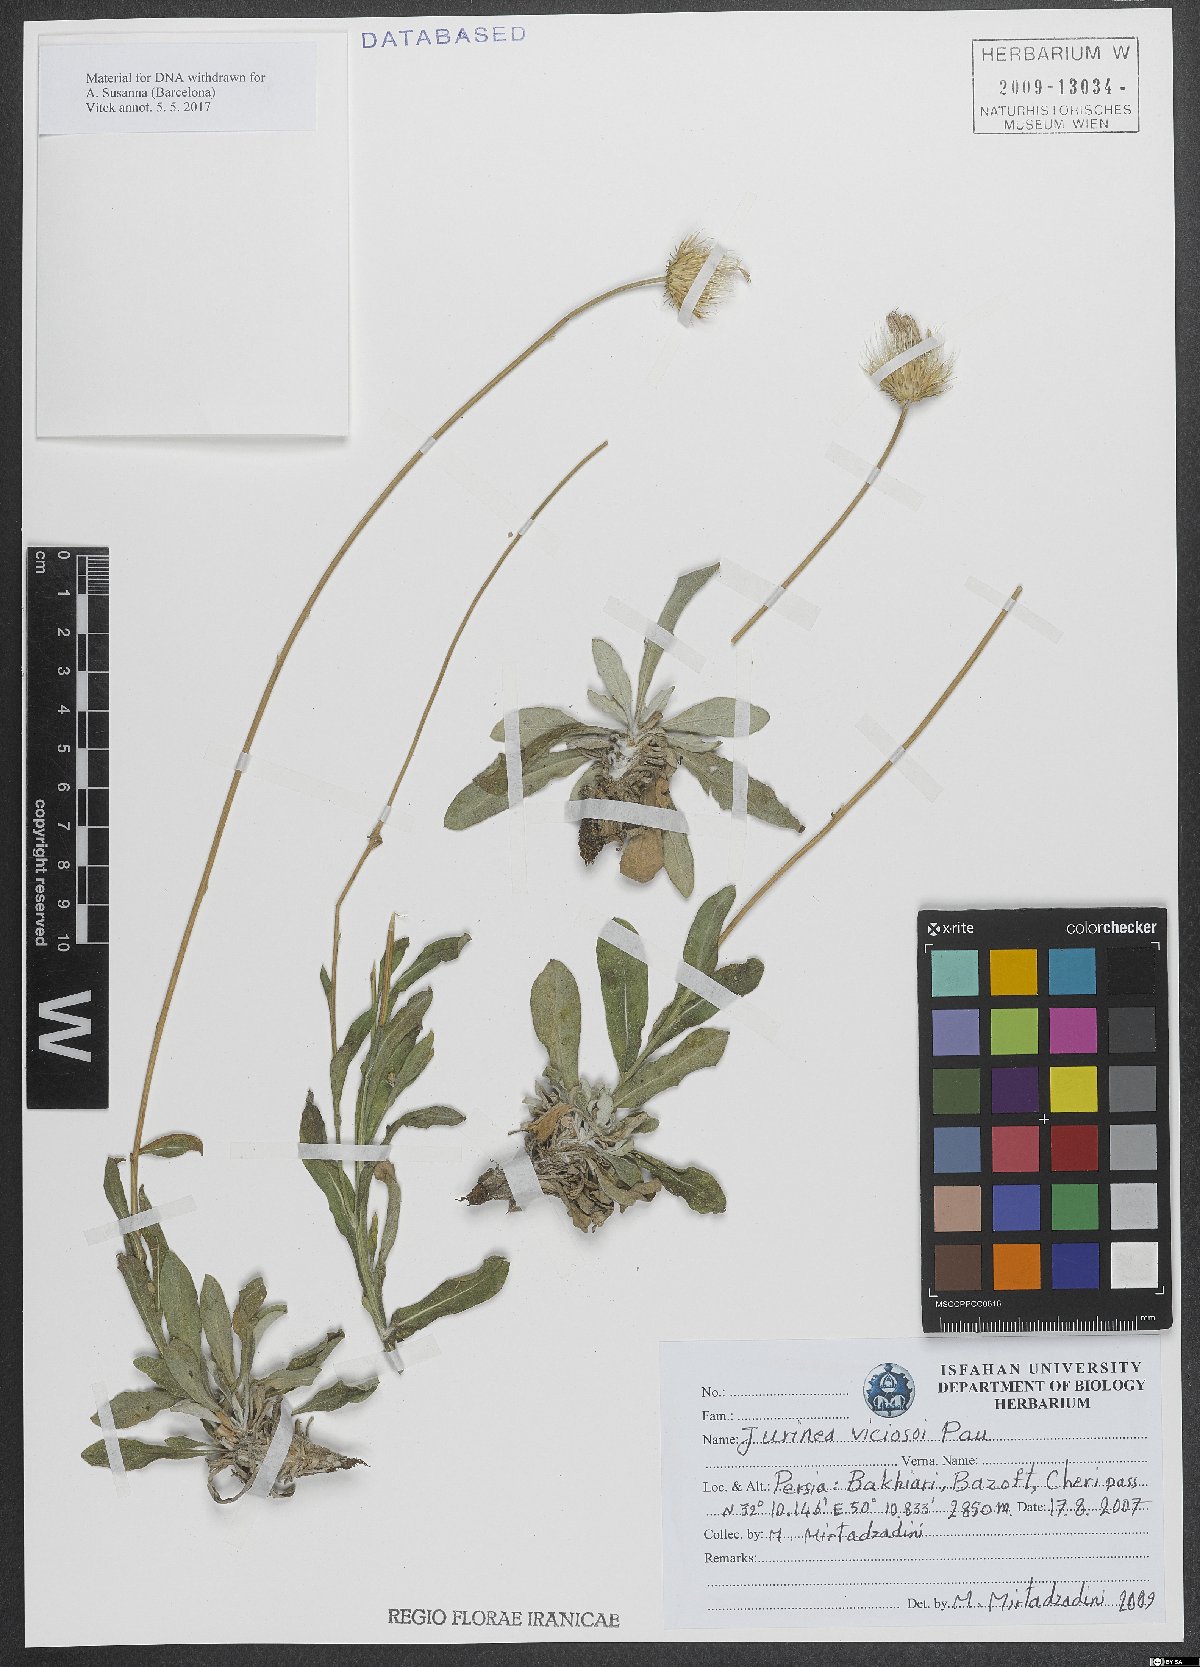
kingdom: Plantae
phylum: Tracheophyta
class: Magnoliopsida
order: Asterales
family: Asteraceae
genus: Jurinea
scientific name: Jurinea viciosoi
